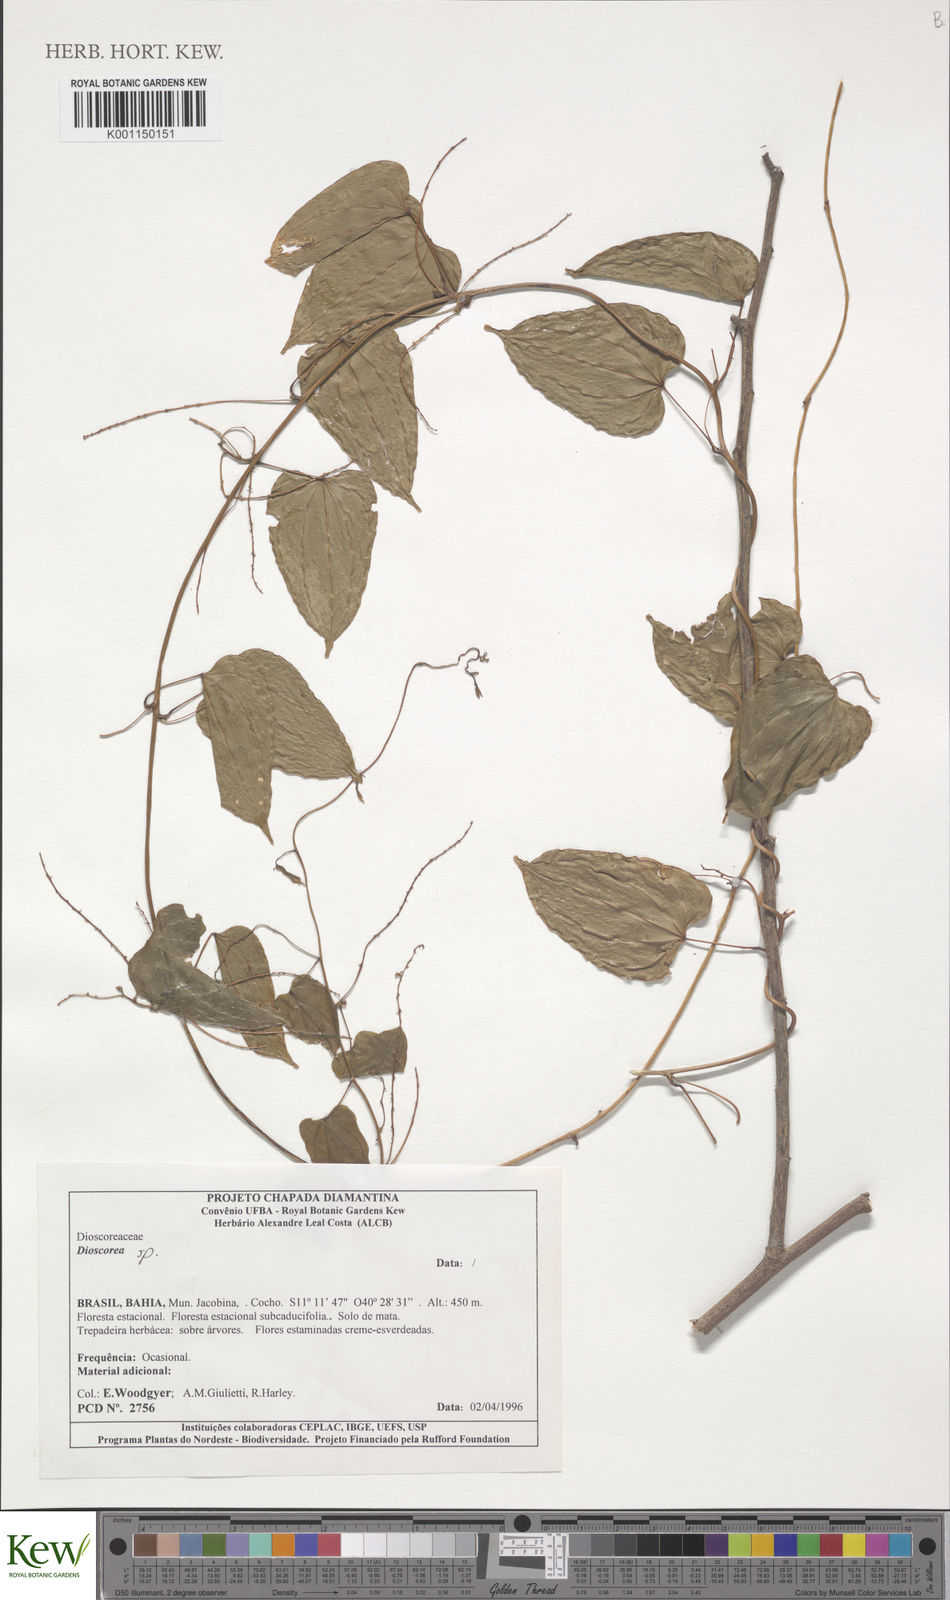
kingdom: Plantae
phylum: Tracheophyta
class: Liliopsida
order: Dioscoreales
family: Dioscoreaceae
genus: Dioscorea
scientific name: Dioscorea chondrocarpa
